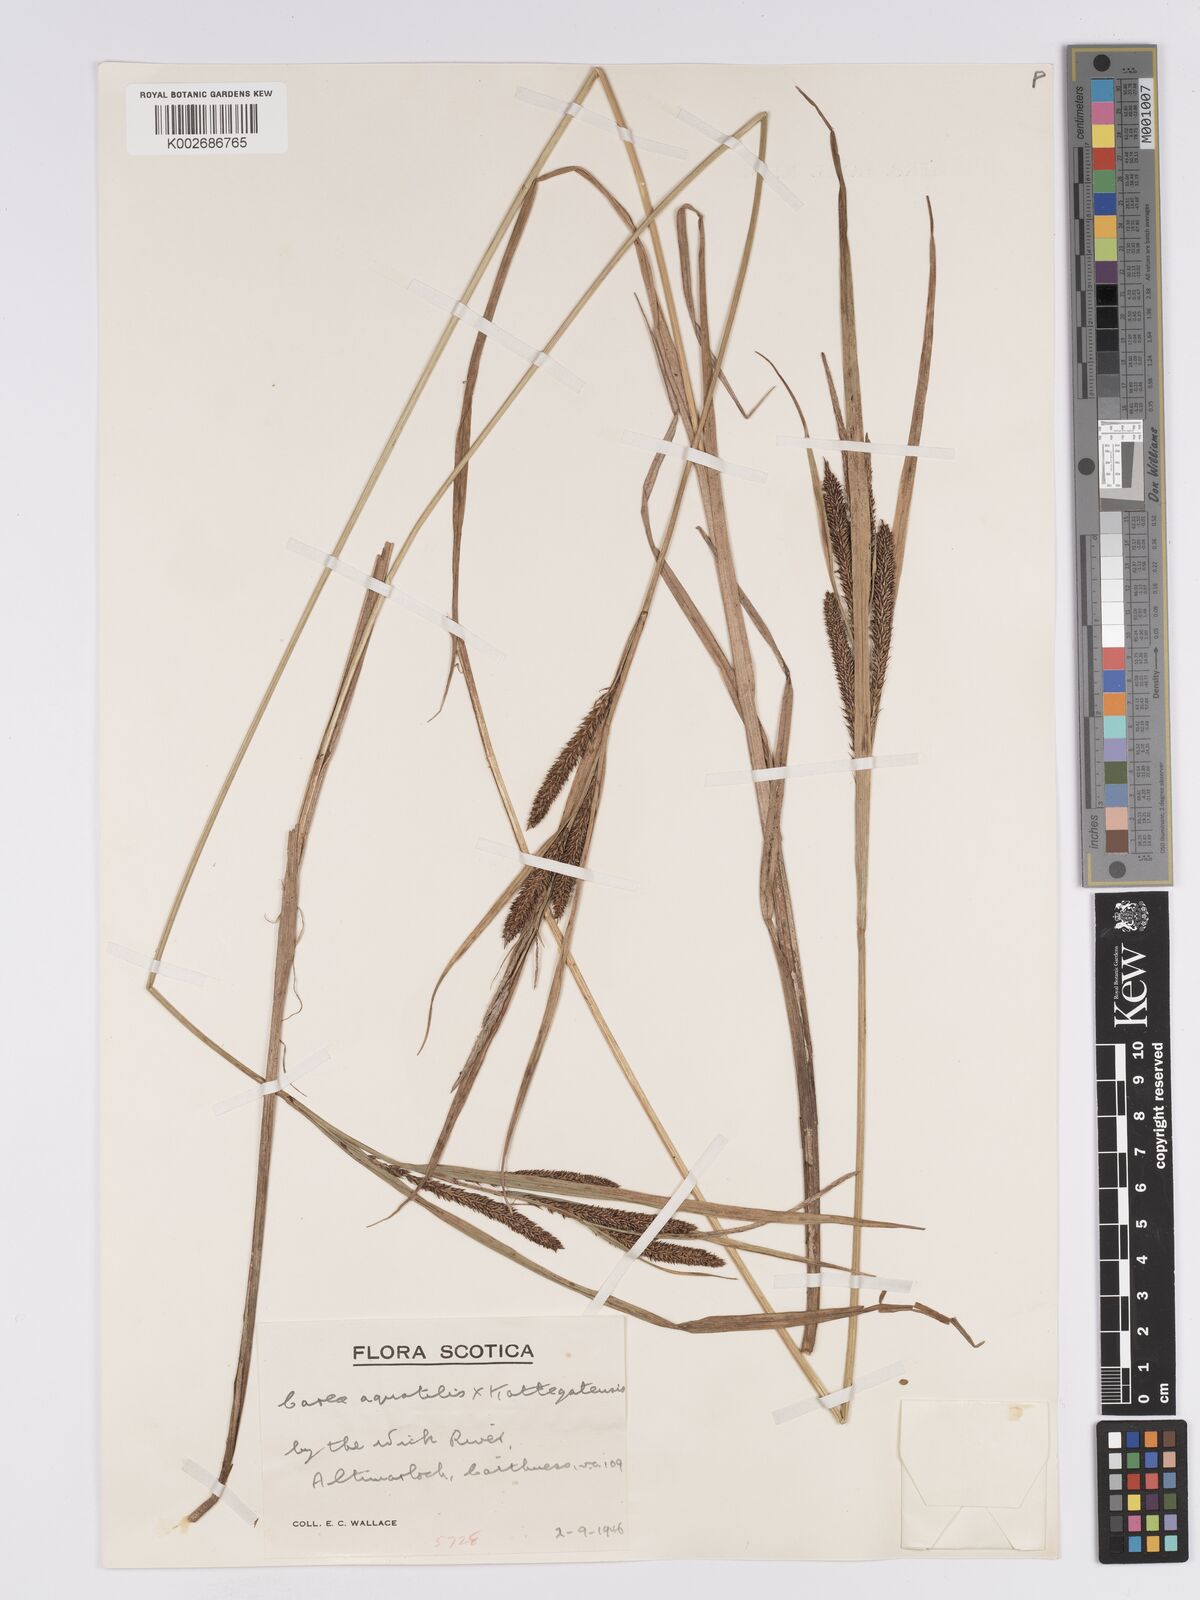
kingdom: Plantae
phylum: Tracheophyta
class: Liliopsida
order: Poales
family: Cyperaceae
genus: Carex
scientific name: Carex grantii
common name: Grant's sedge
